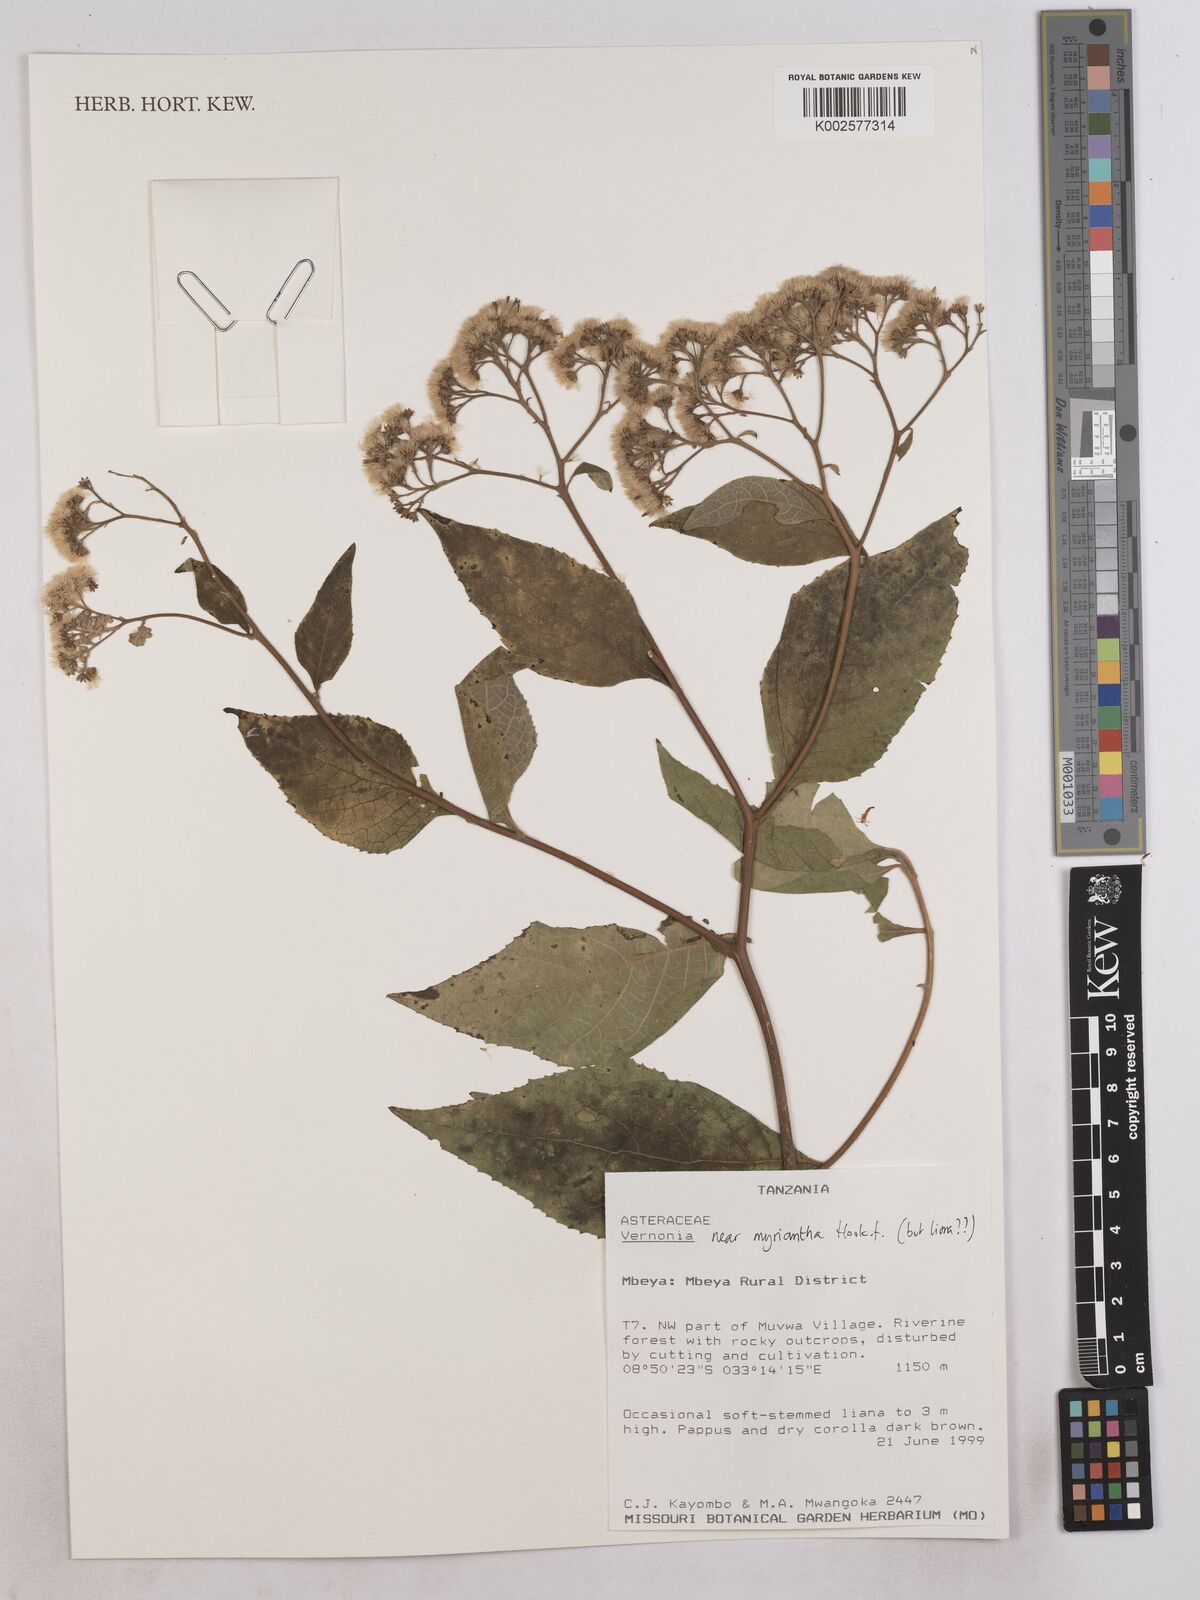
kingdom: Plantae
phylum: Tracheophyta
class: Magnoliopsida
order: Asterales
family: Asteraceae
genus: Gymnanthemum
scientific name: Gymnanthemum myrianthum
